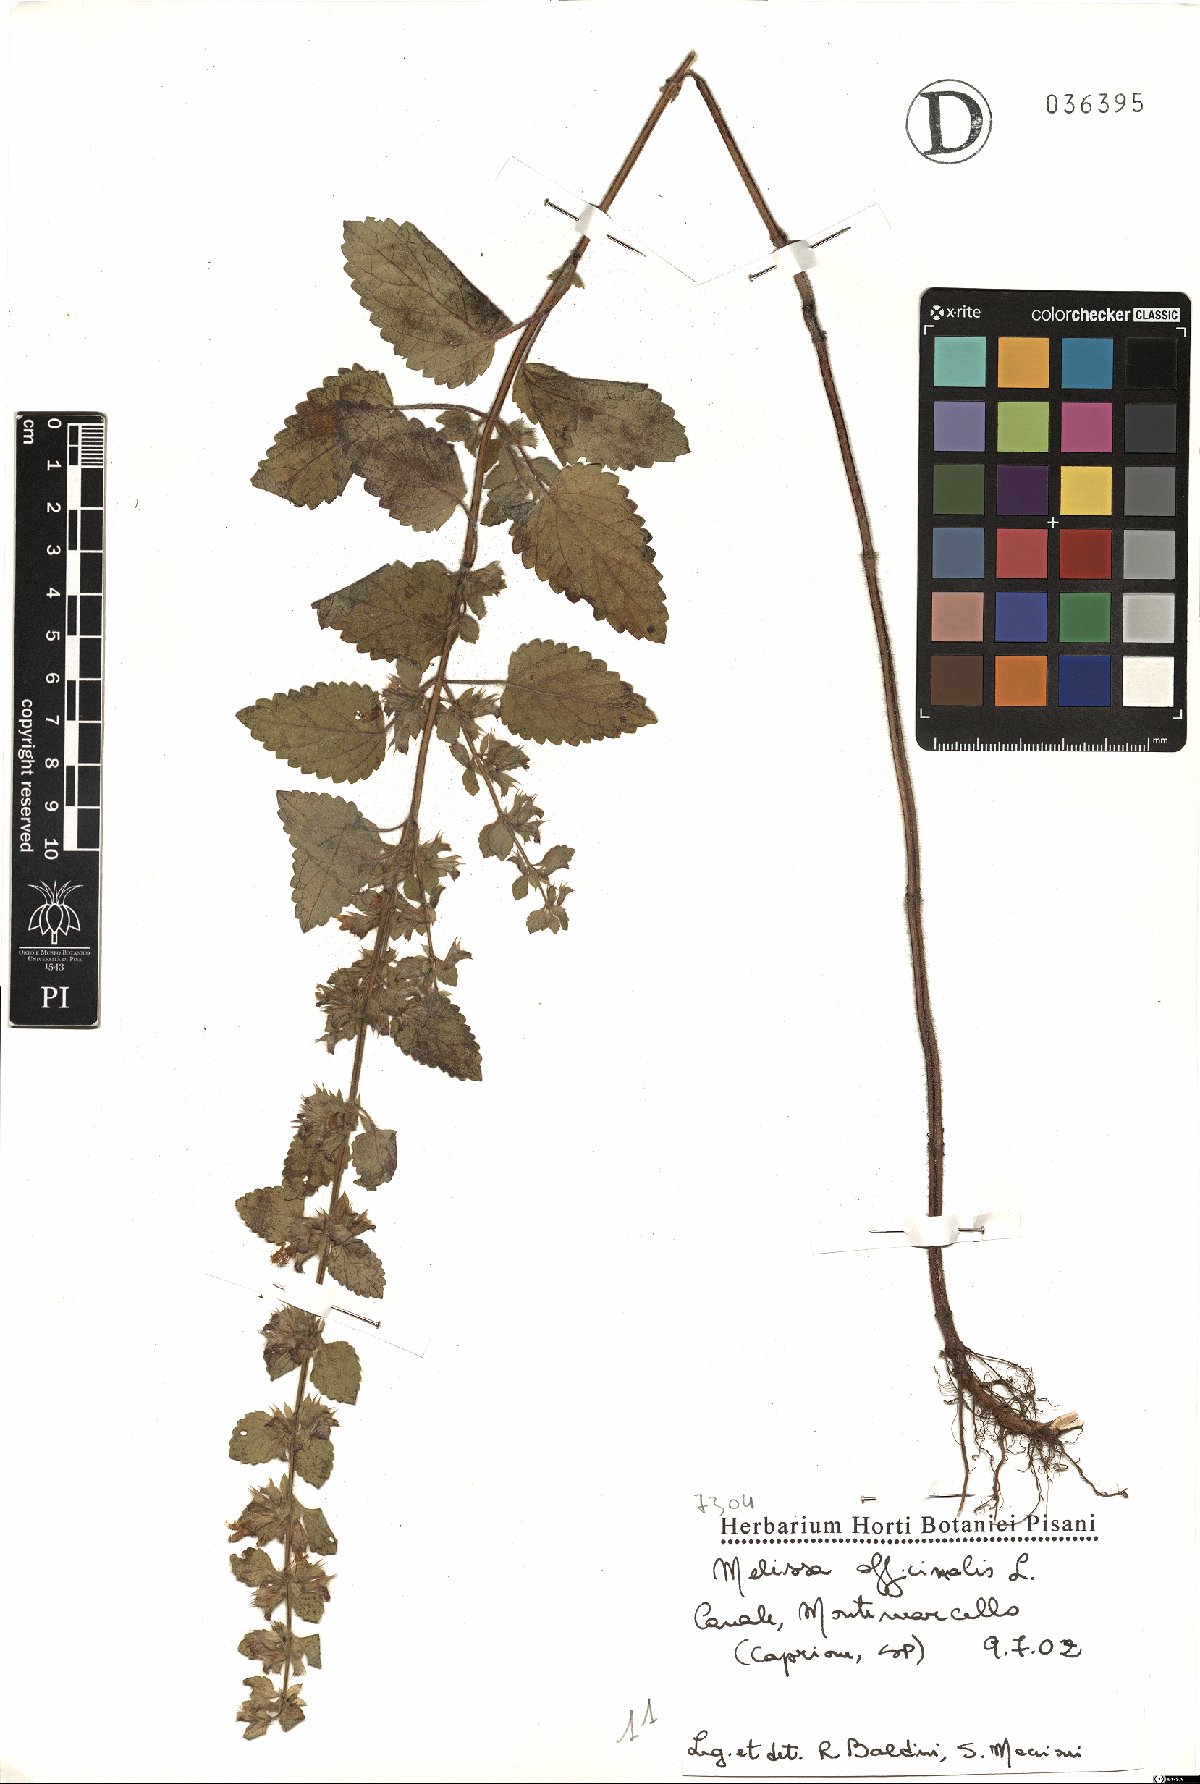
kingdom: Plantae
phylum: Tracheophyta
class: Magnoliopsida
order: Lamiales
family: Lamiaceae
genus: Melissa
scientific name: Melissa officinalis
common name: Balm
